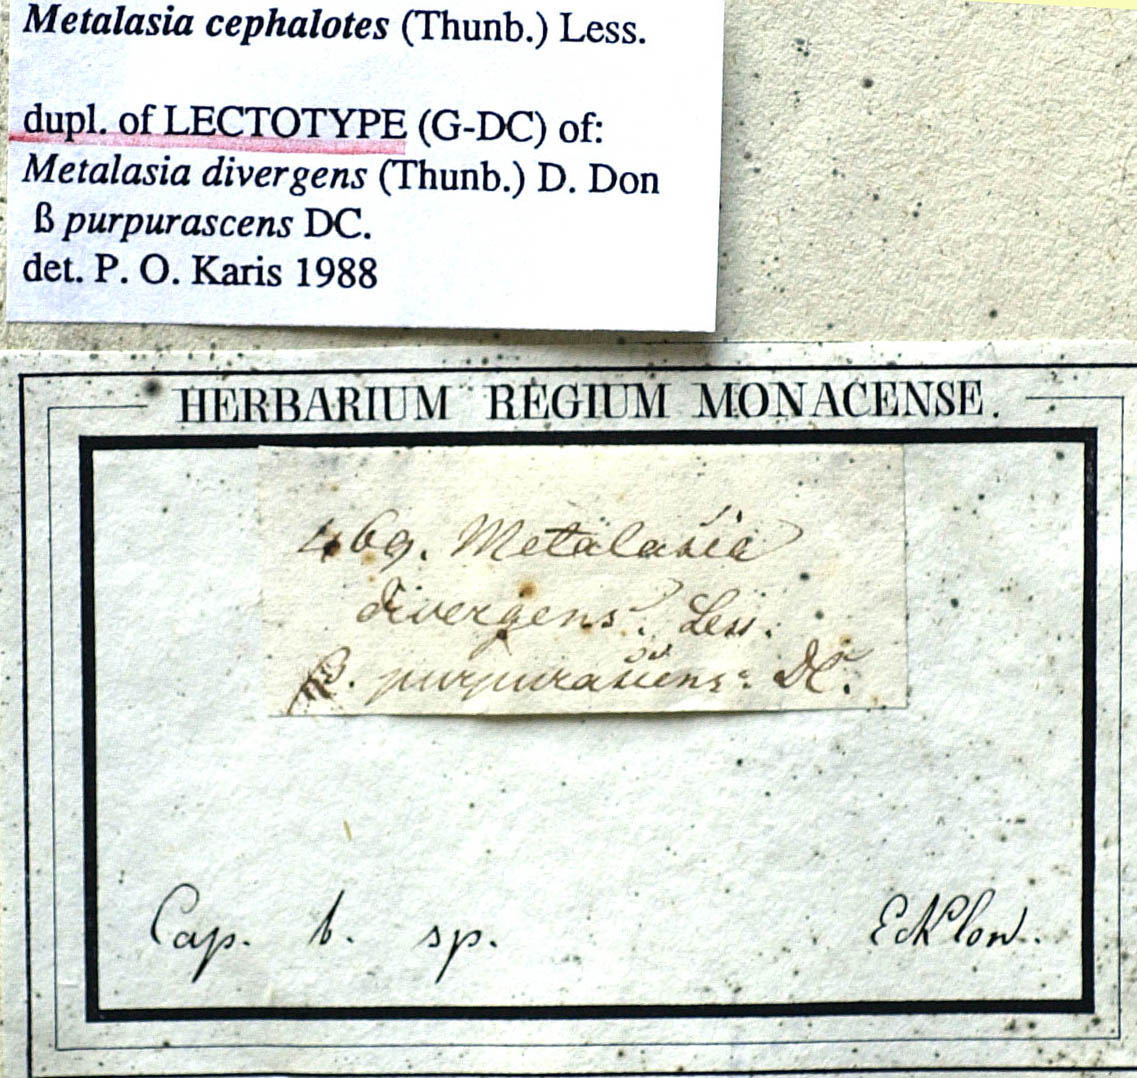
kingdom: Plantae
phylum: Tracheophyta
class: Magnoliopsida
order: Asterales
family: Asteraceae
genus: Metalasia
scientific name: Metalasia cephalotes
